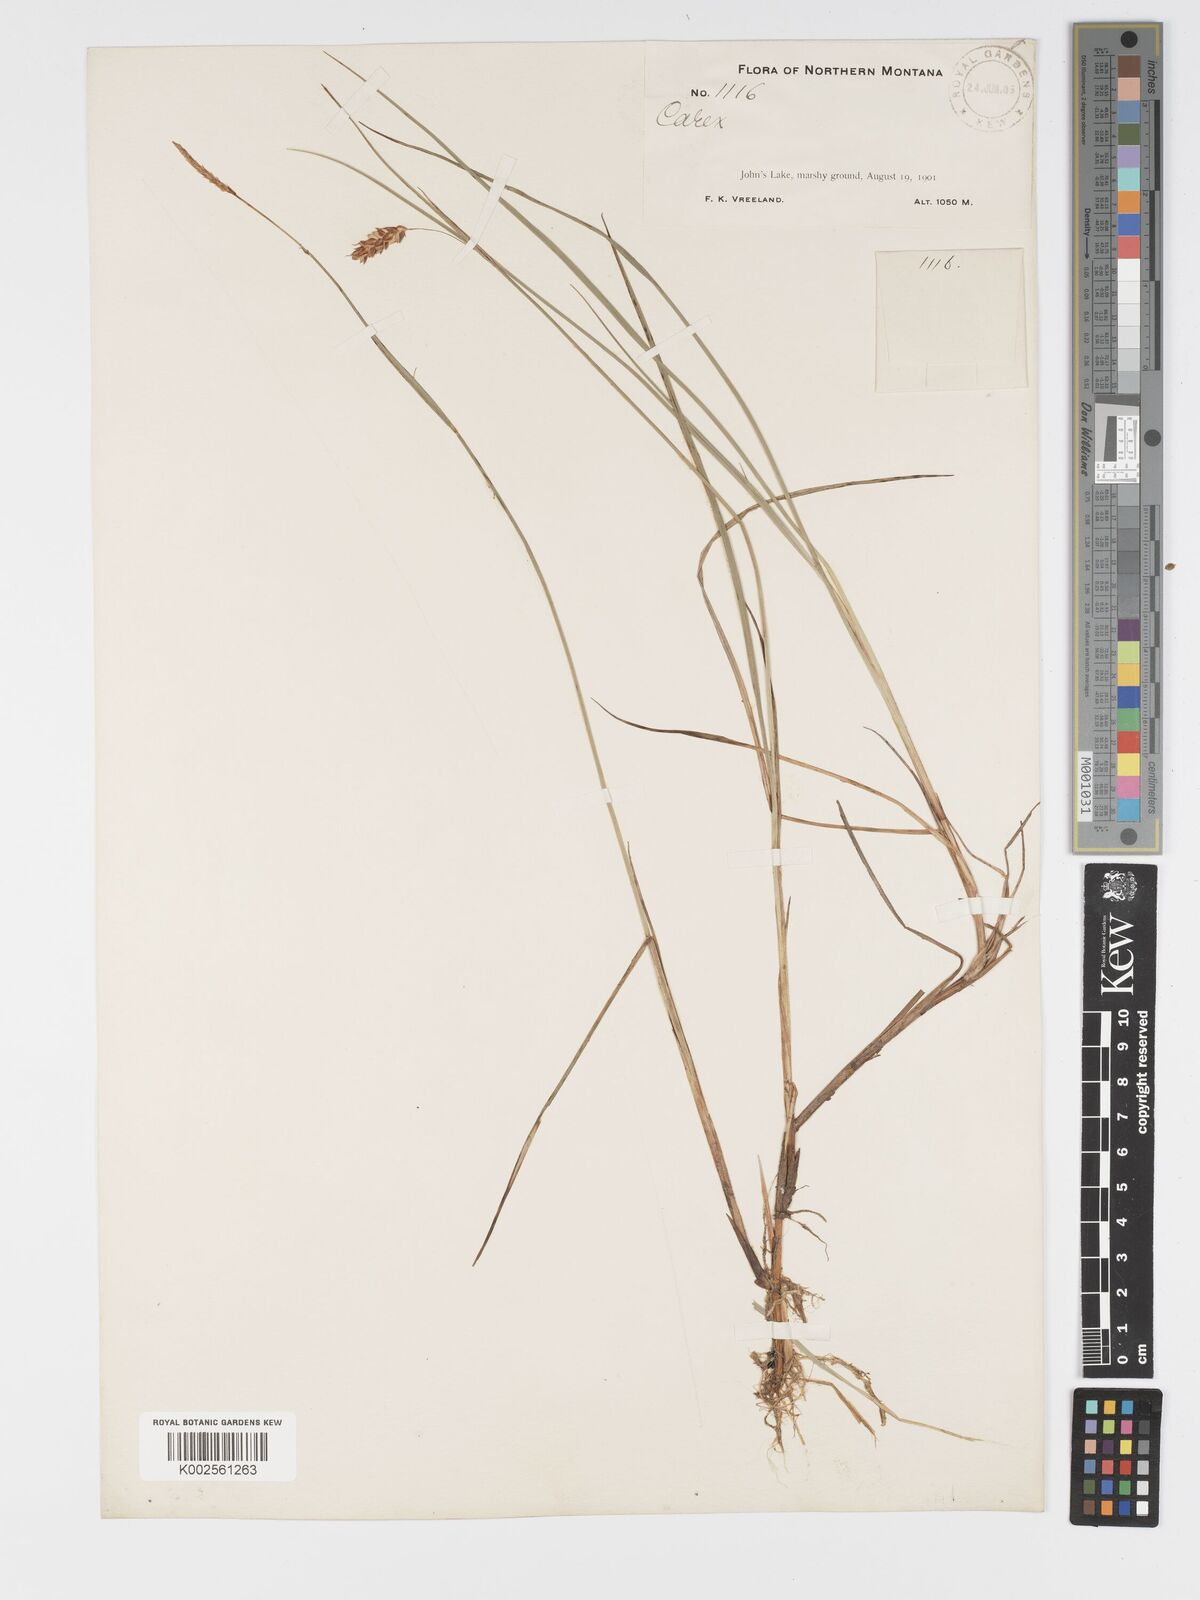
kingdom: Plantae
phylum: Tracheophyta
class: Liliopsida
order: Poales
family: Cyperaceae
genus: Carex
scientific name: Carex limosa
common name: Bog sedge
